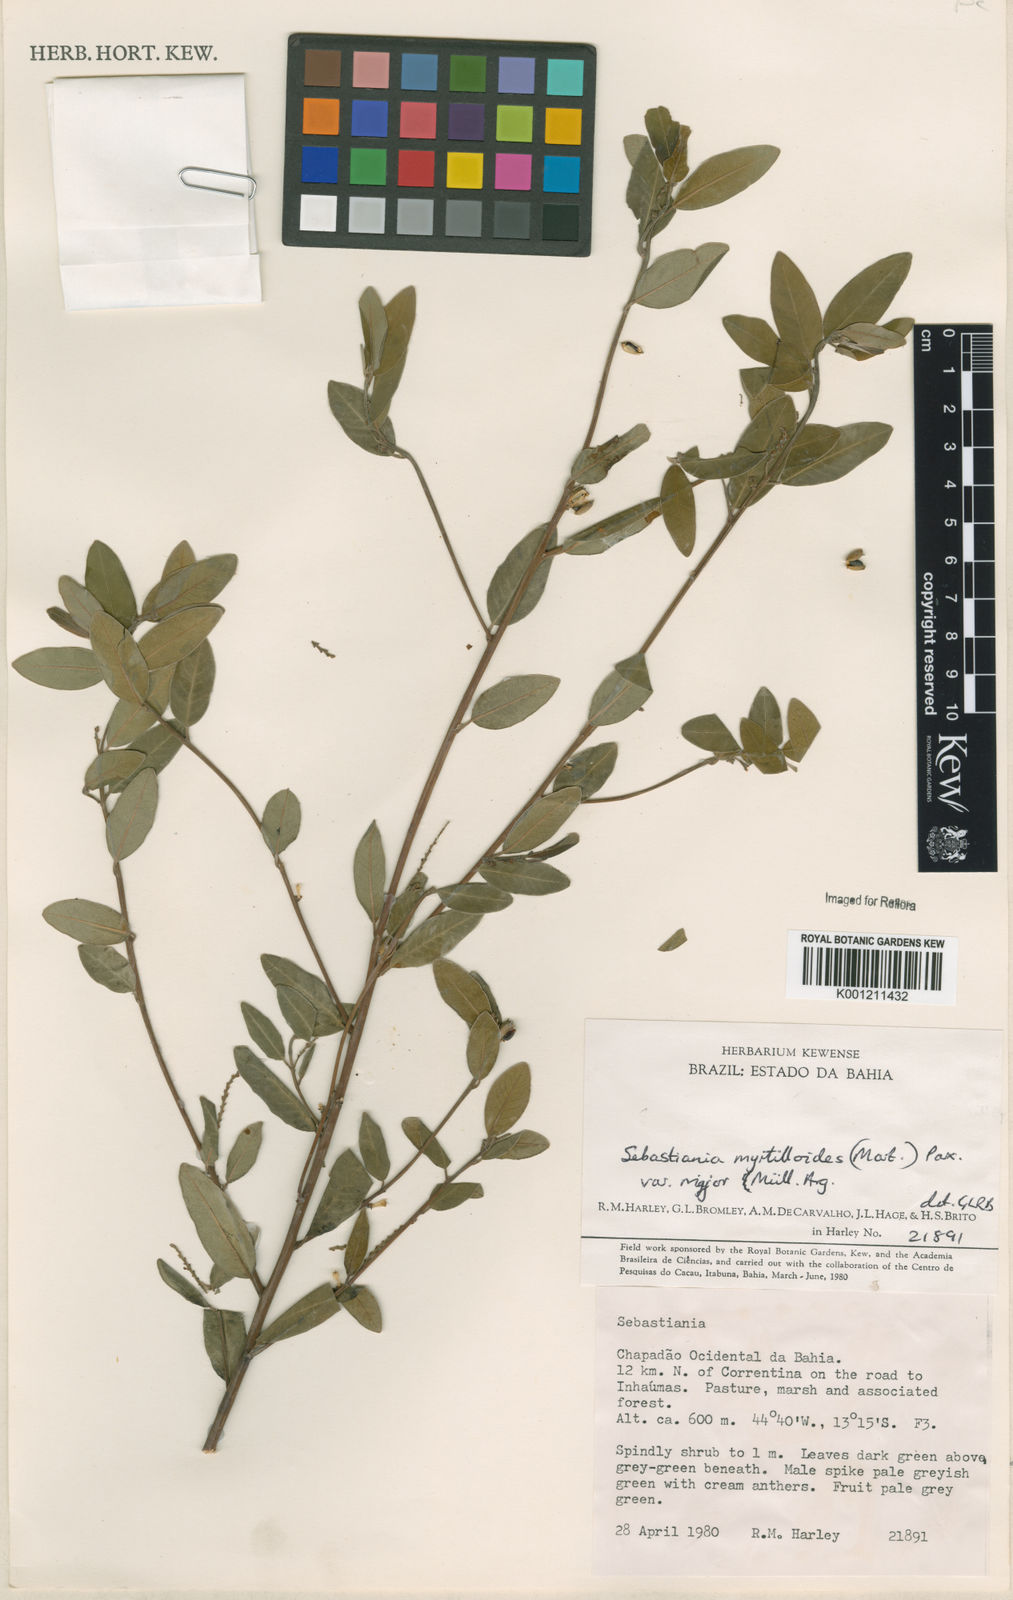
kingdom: Plantae
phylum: Tracheophyta
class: Magnoliopsida
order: Malpighiales
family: Euphorbiaceae
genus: Microstachys
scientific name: Microstachys
